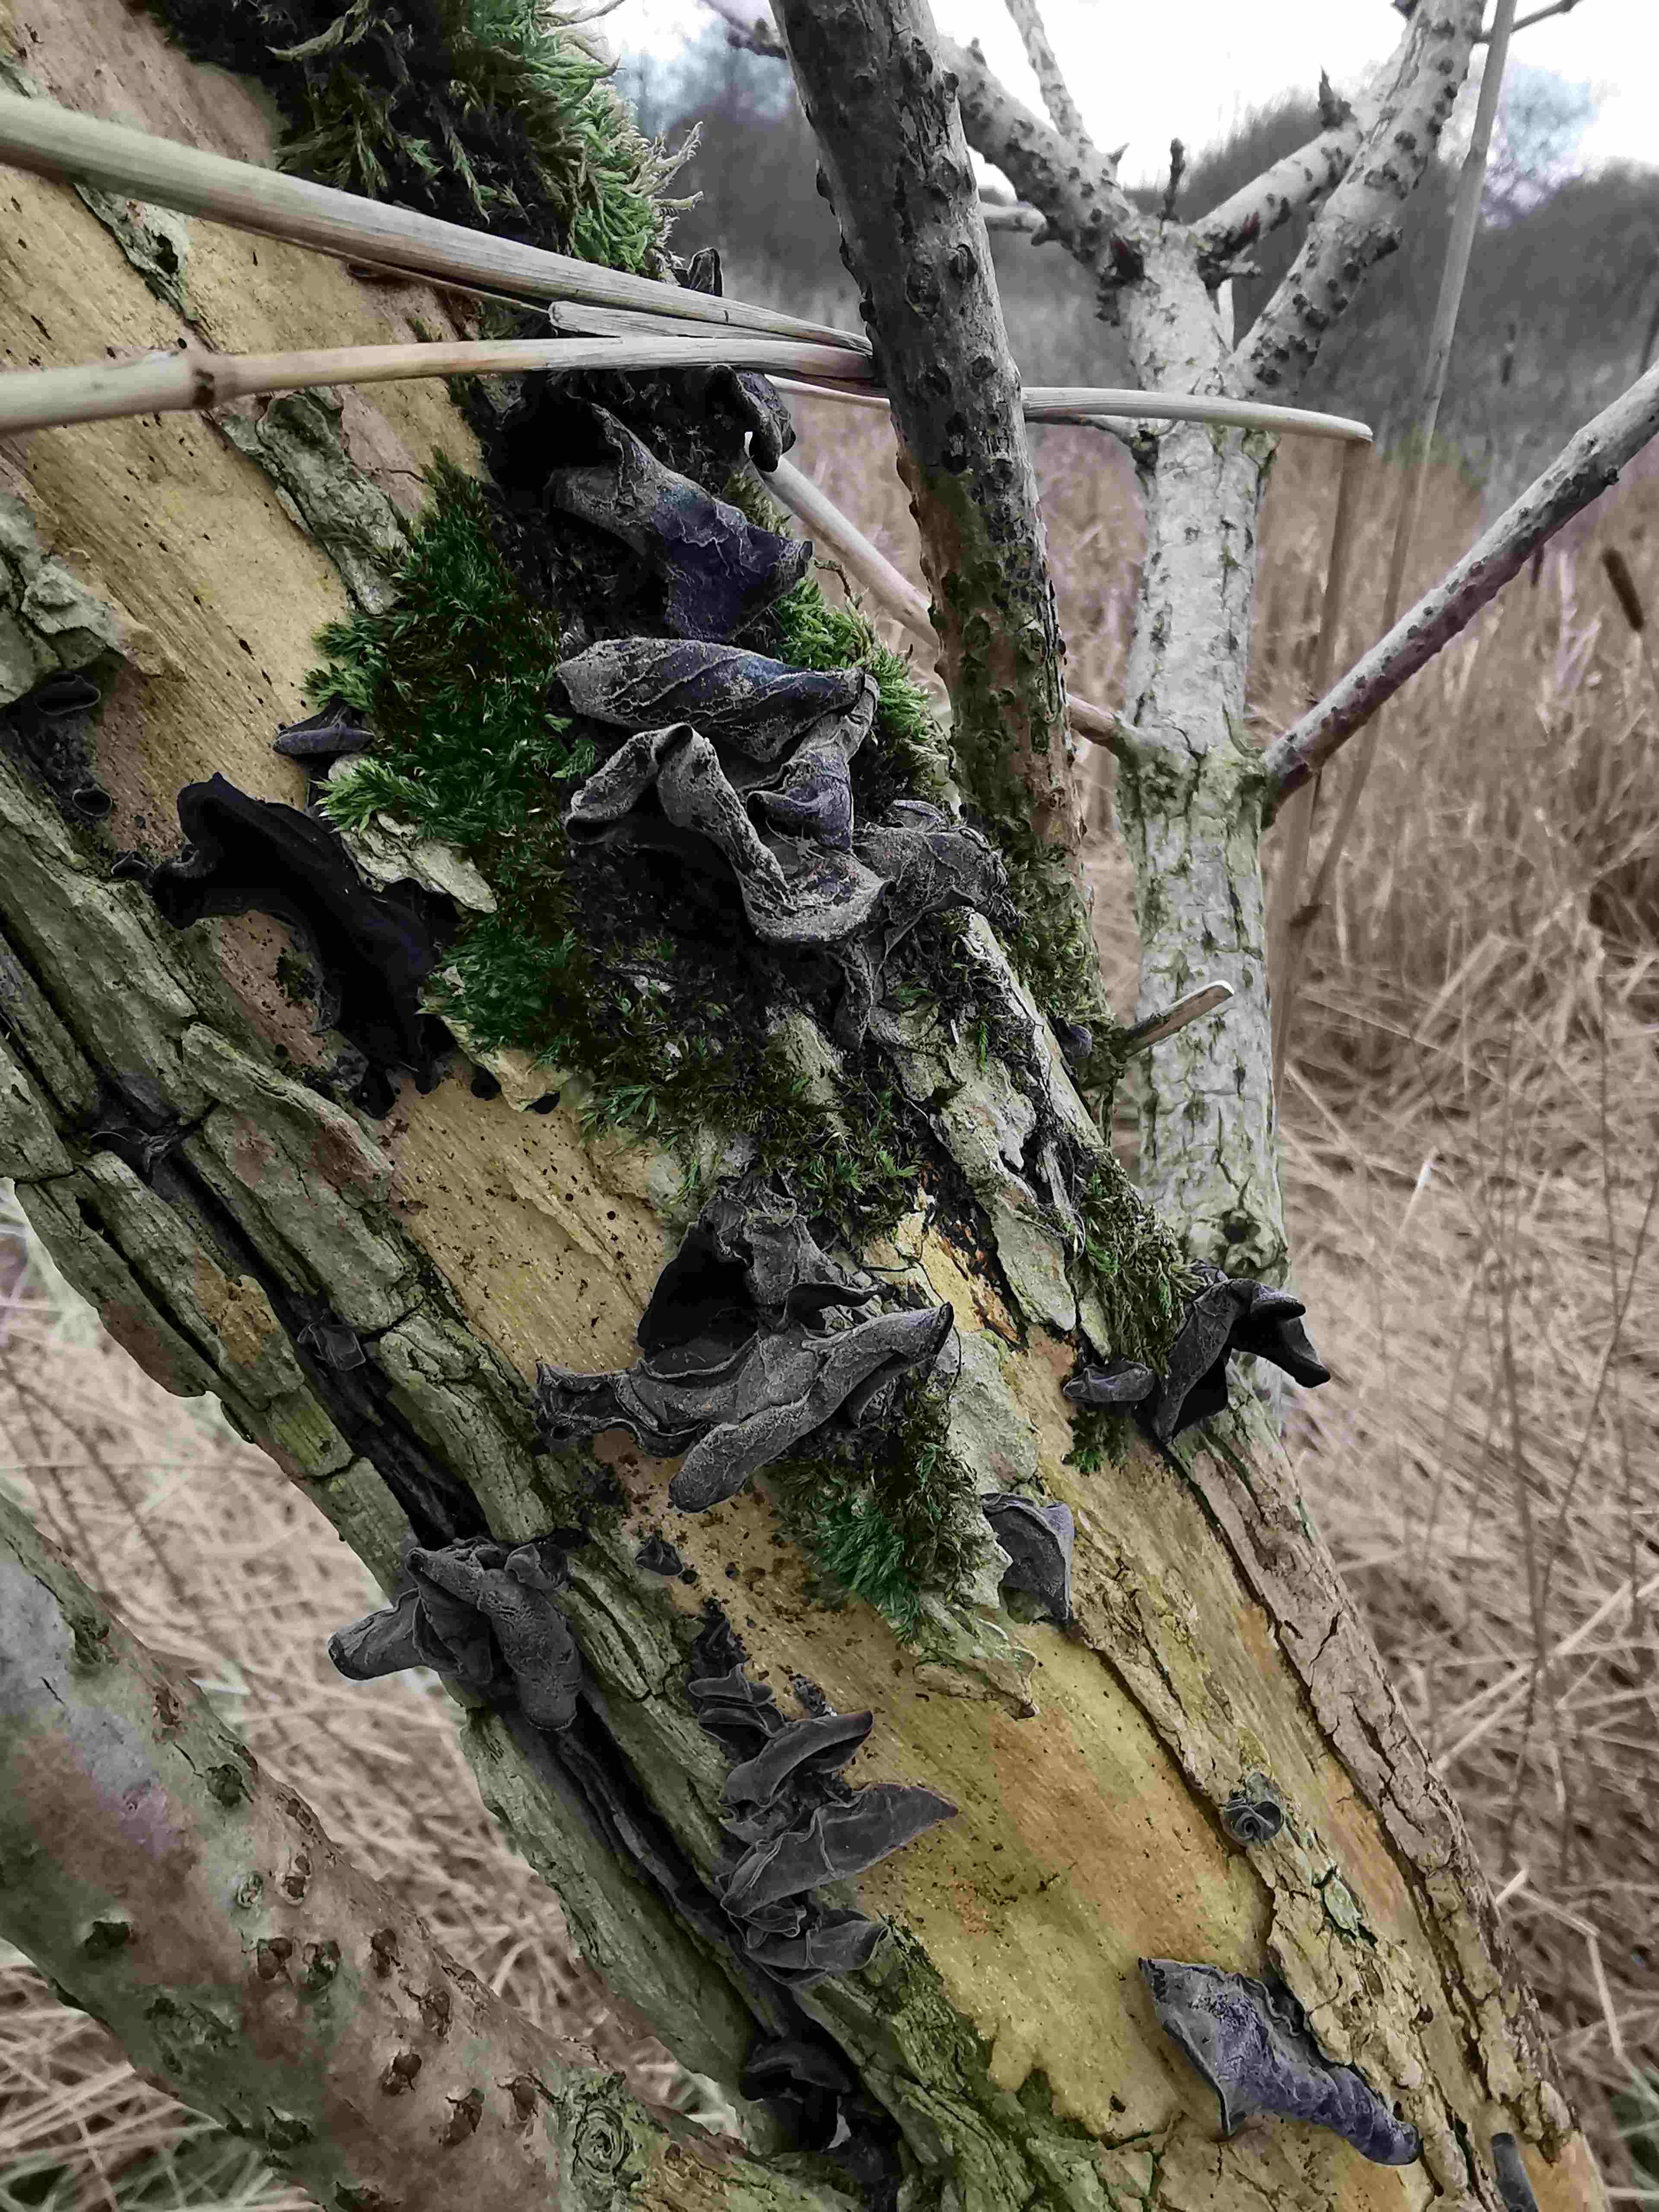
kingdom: Fungi
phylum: Basidiomycota
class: Agaricomycetes
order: Auriculariales
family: Auriculariaceae
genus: Auricularia
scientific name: Auricularia auricula-judae
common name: almindelig judasøre
